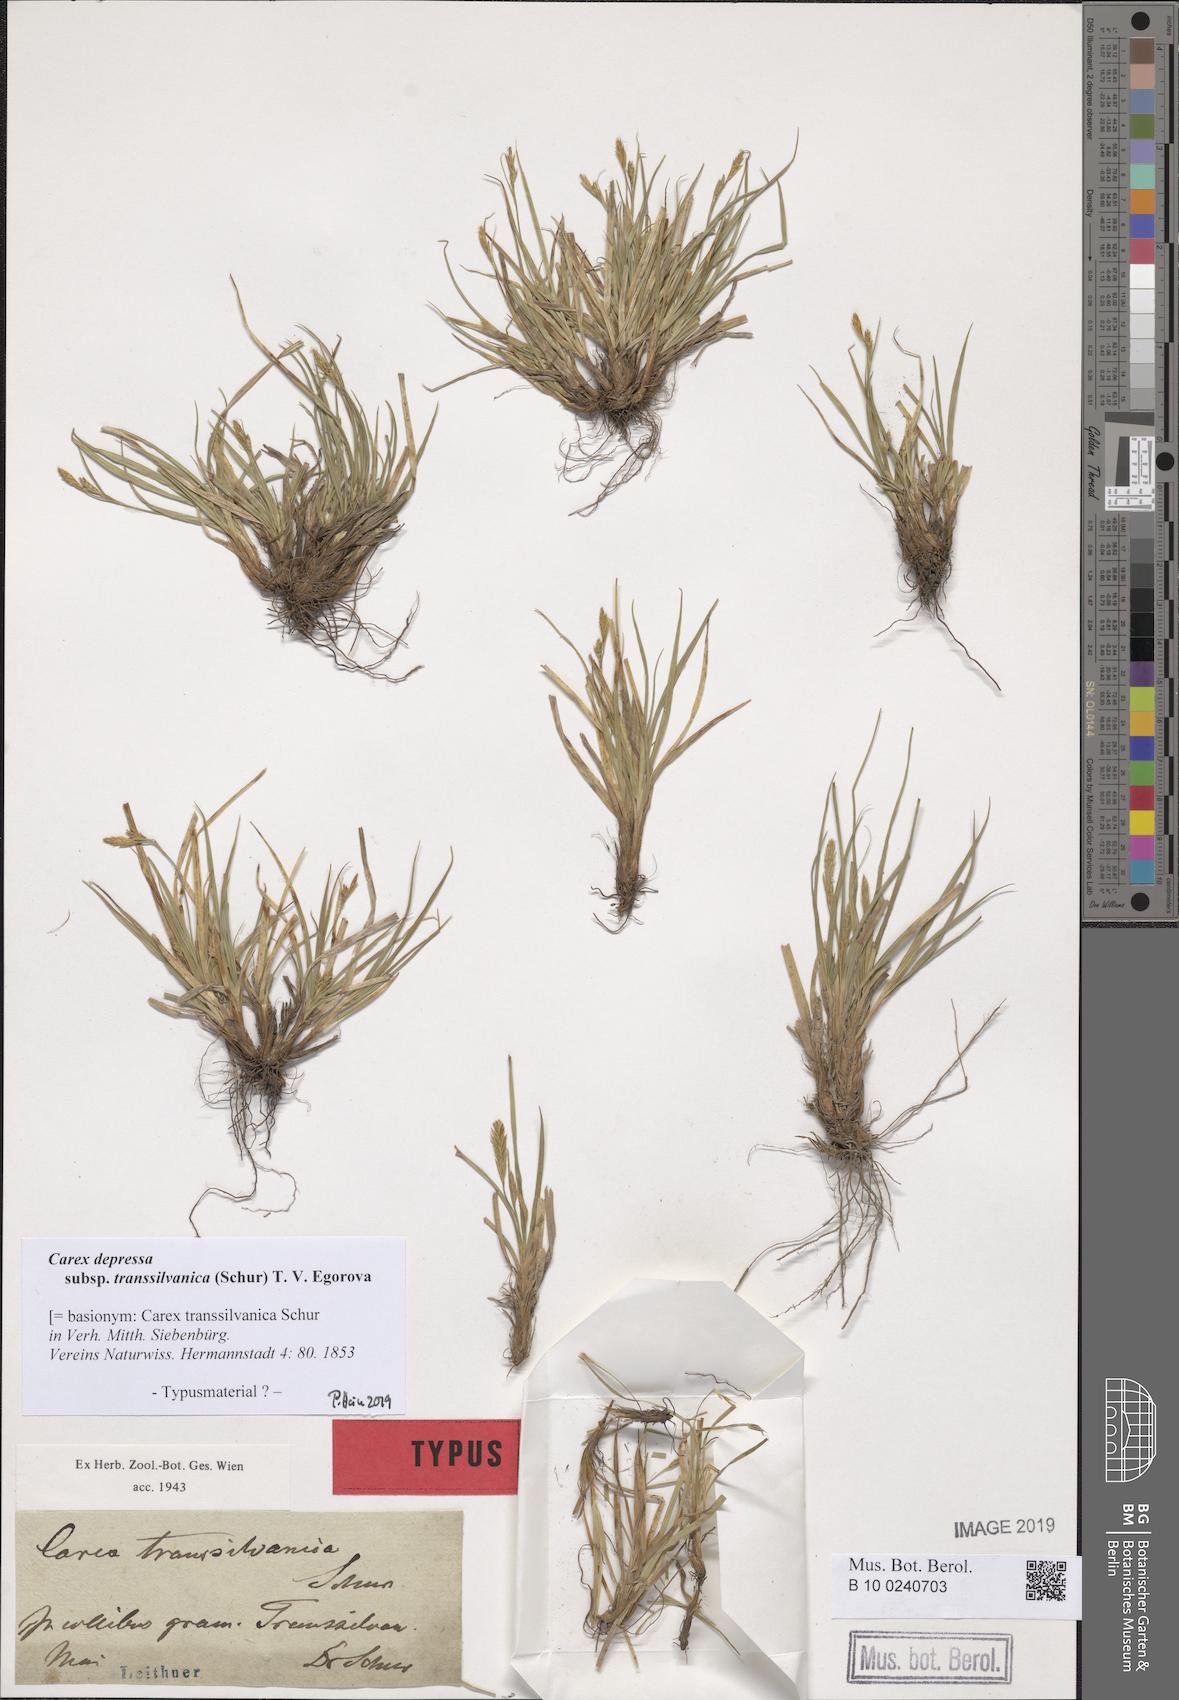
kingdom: Plantae
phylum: Tracheophyta
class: Liliopsida
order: Poales
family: Cyperaceae
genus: Carex
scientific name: Carex depressa
